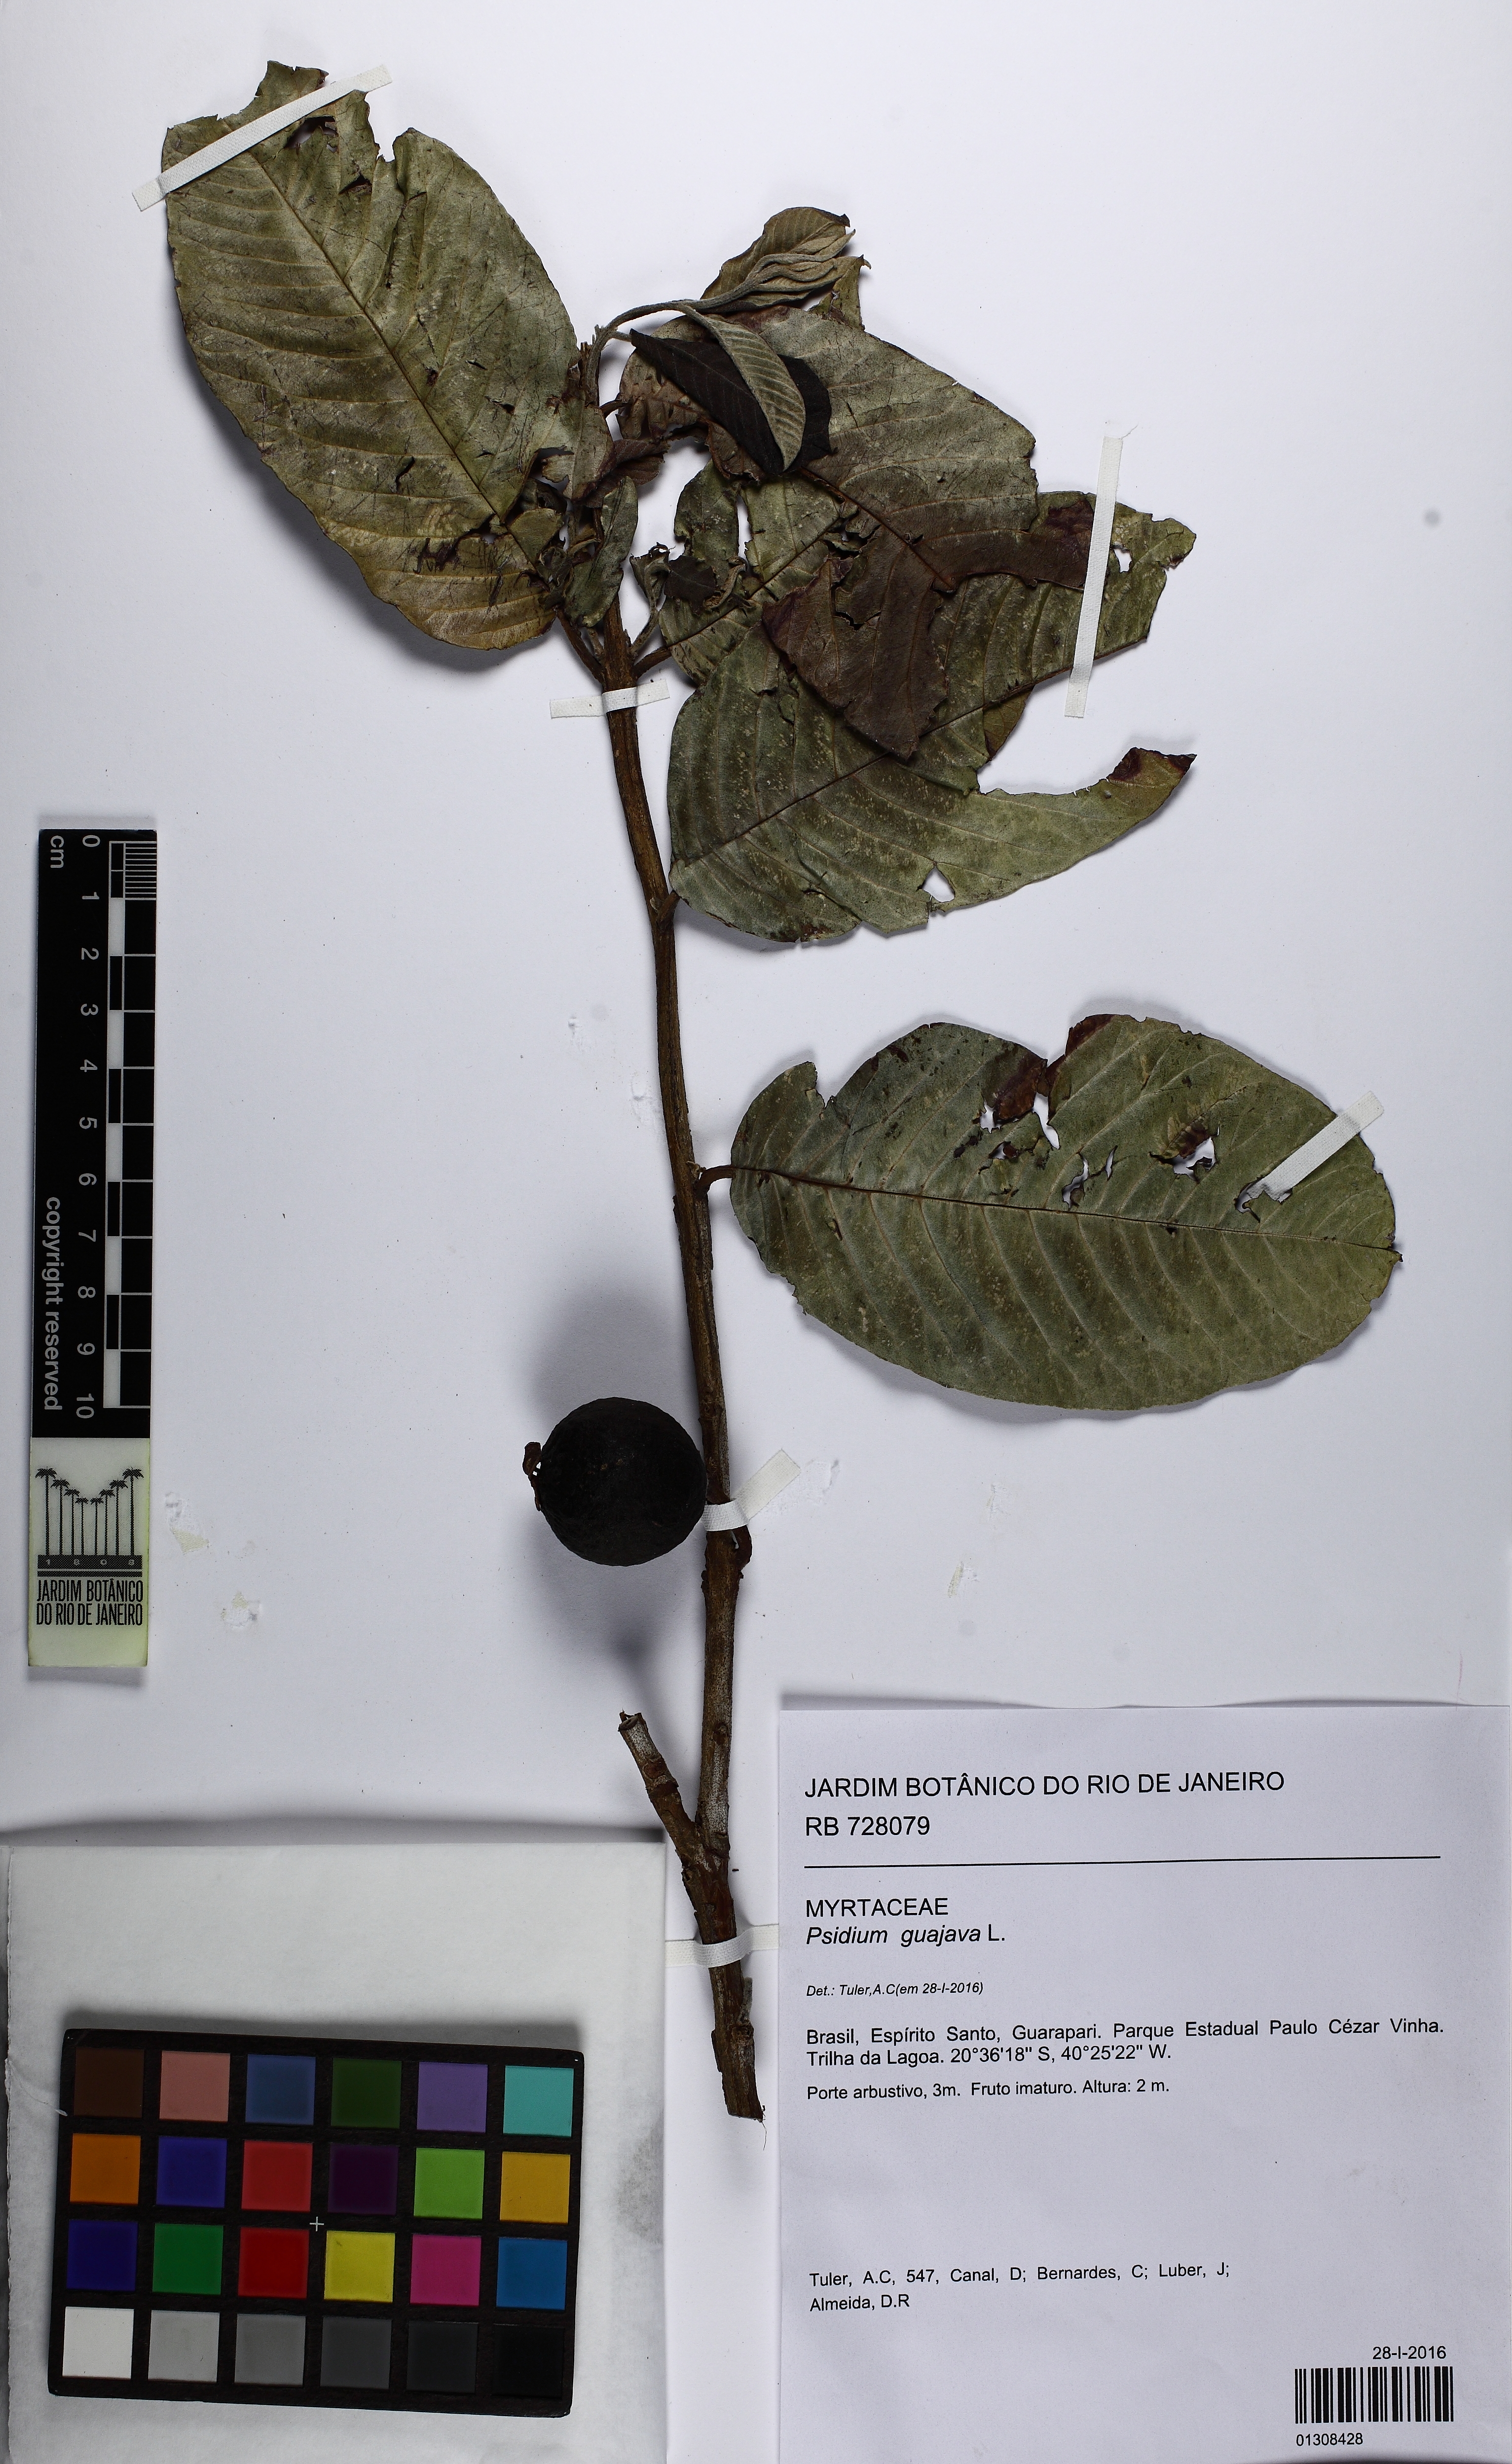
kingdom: Plantae
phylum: Tracheophyta
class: Magnoliopsida
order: Myrtales
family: Myrtaceae
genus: Psidium
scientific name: Psidium guajava
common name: Guava
